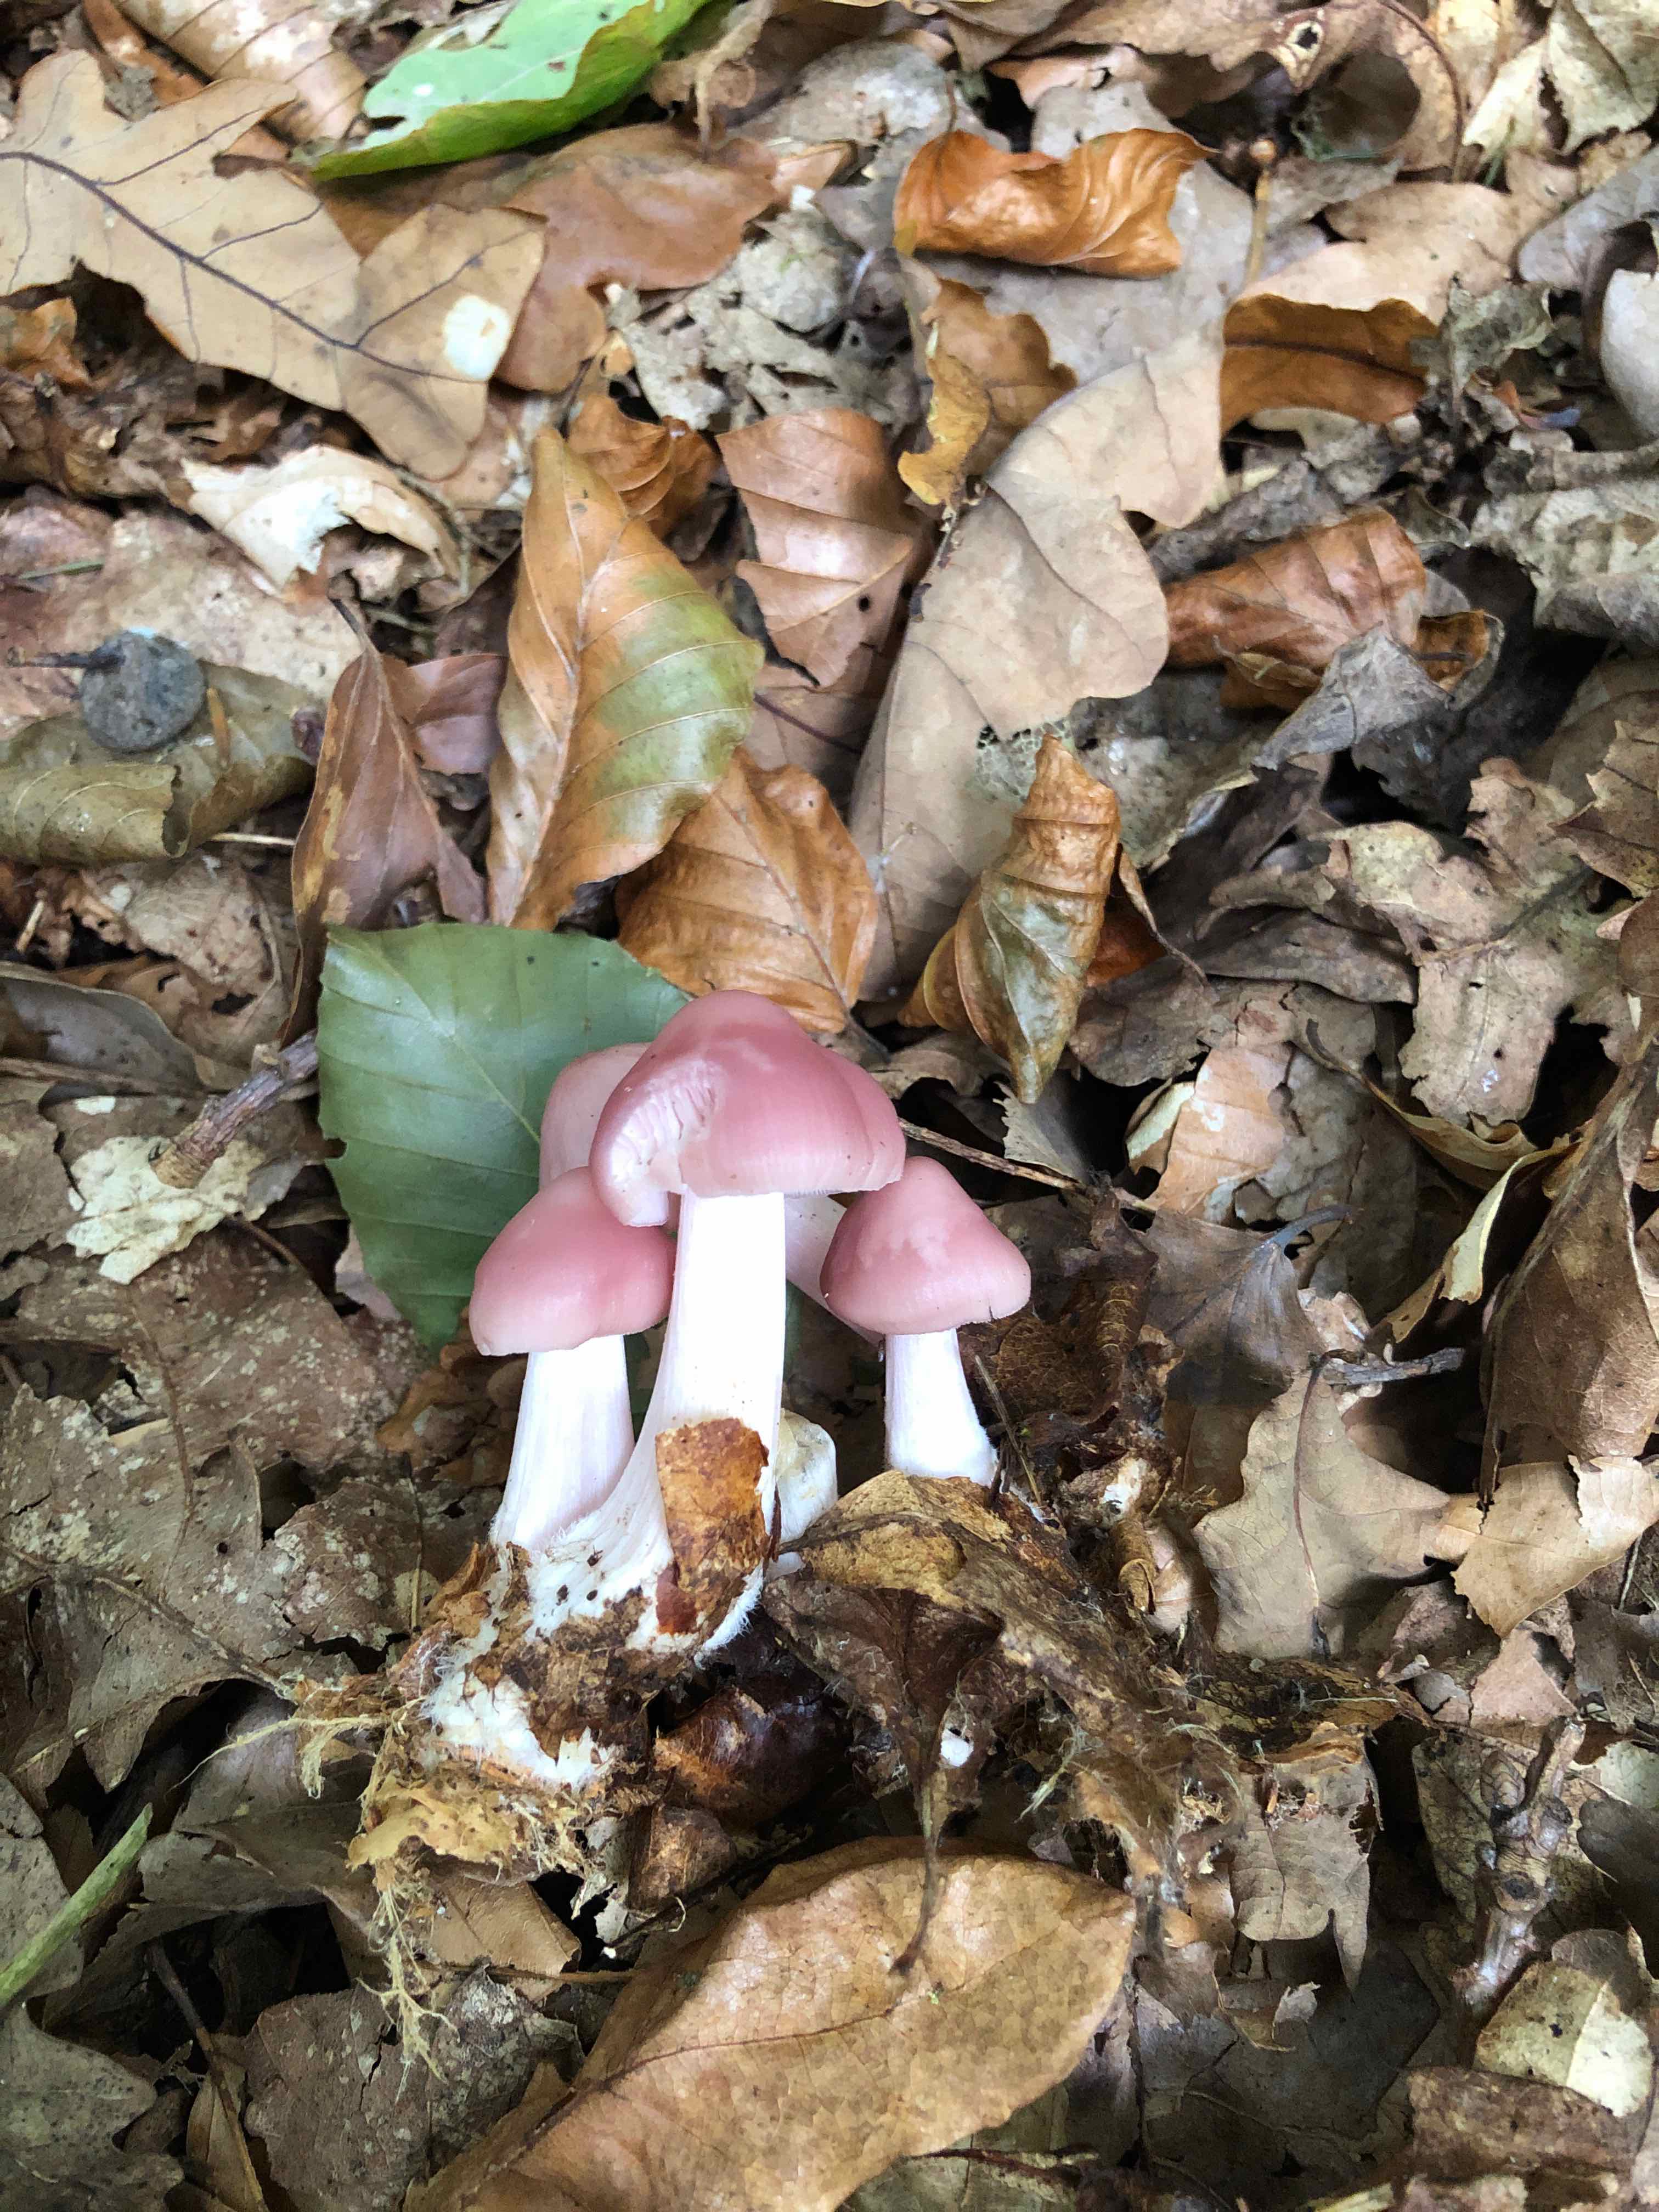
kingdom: Fungi
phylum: Basidiomycota
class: Agaricomycetes
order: Agaricales
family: Mycenaceae
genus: Mycena
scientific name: Mycena rosea
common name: rosa huesvamp
